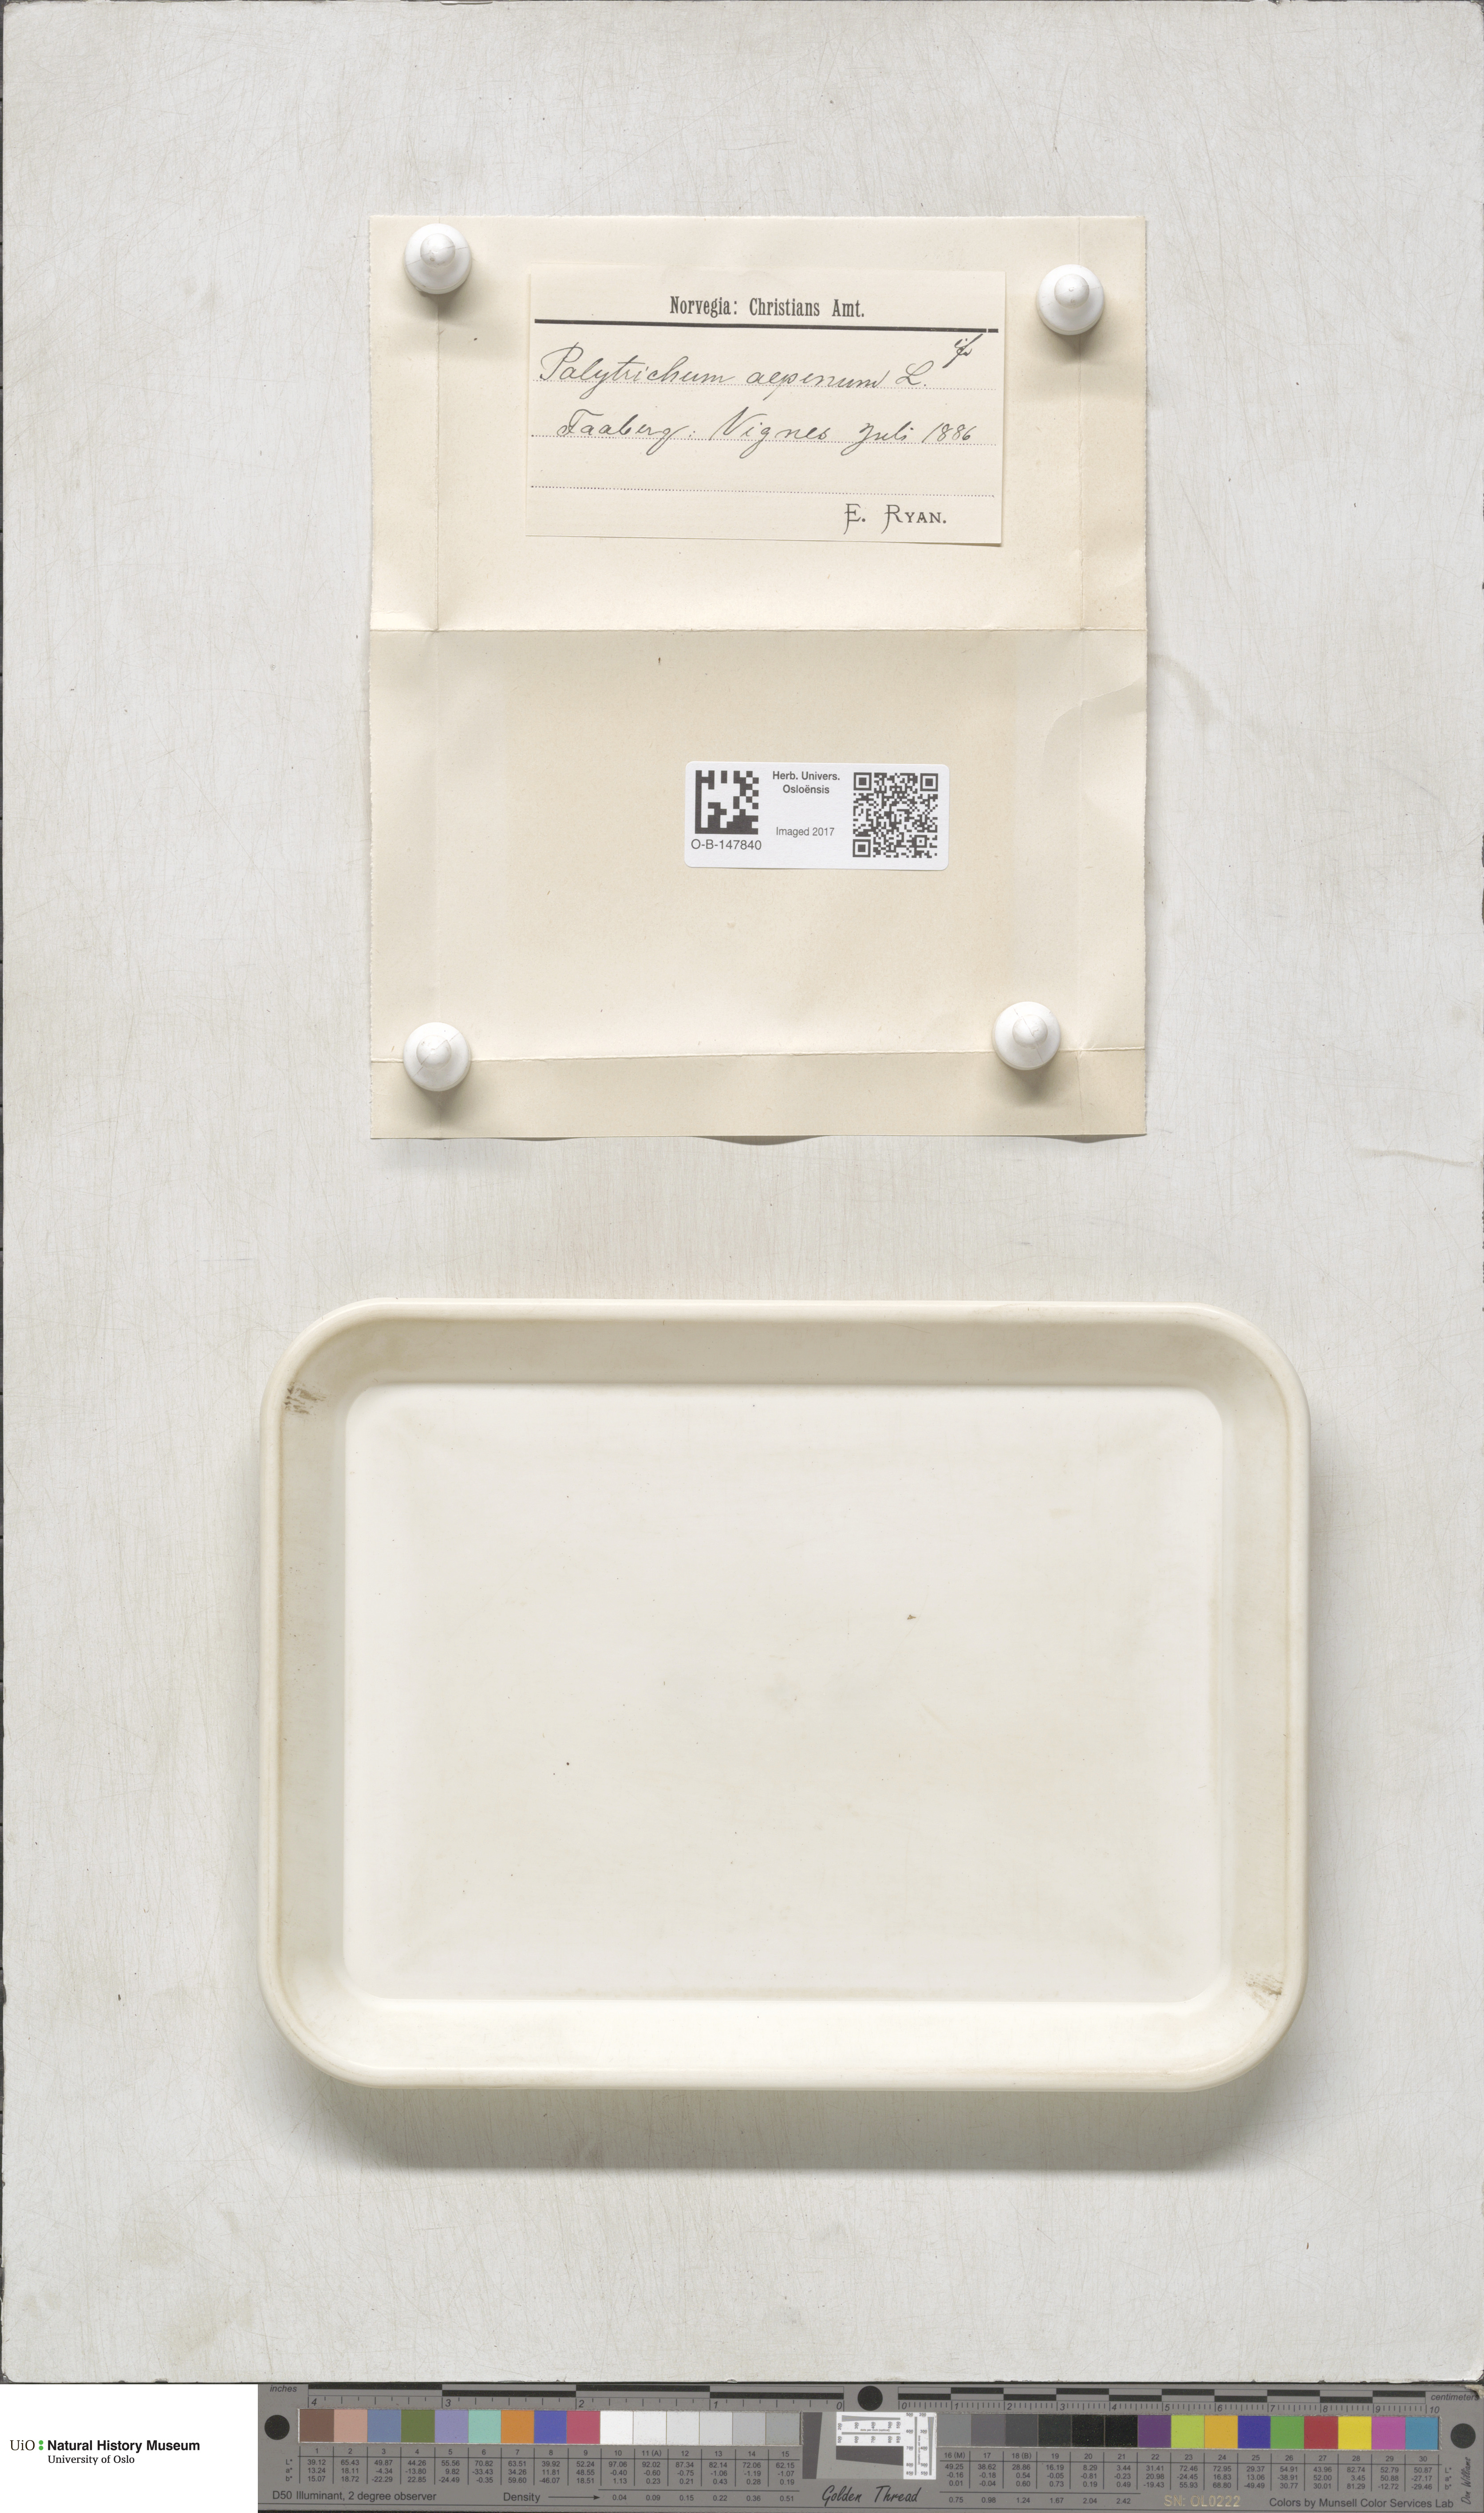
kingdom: Plantae
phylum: Bryophyta
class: Polytrichopsida
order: Polytrichales
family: Polytrichaceae
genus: Polytrichastrum
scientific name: Polytrichastrum alpinum
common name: Alpine haircap
